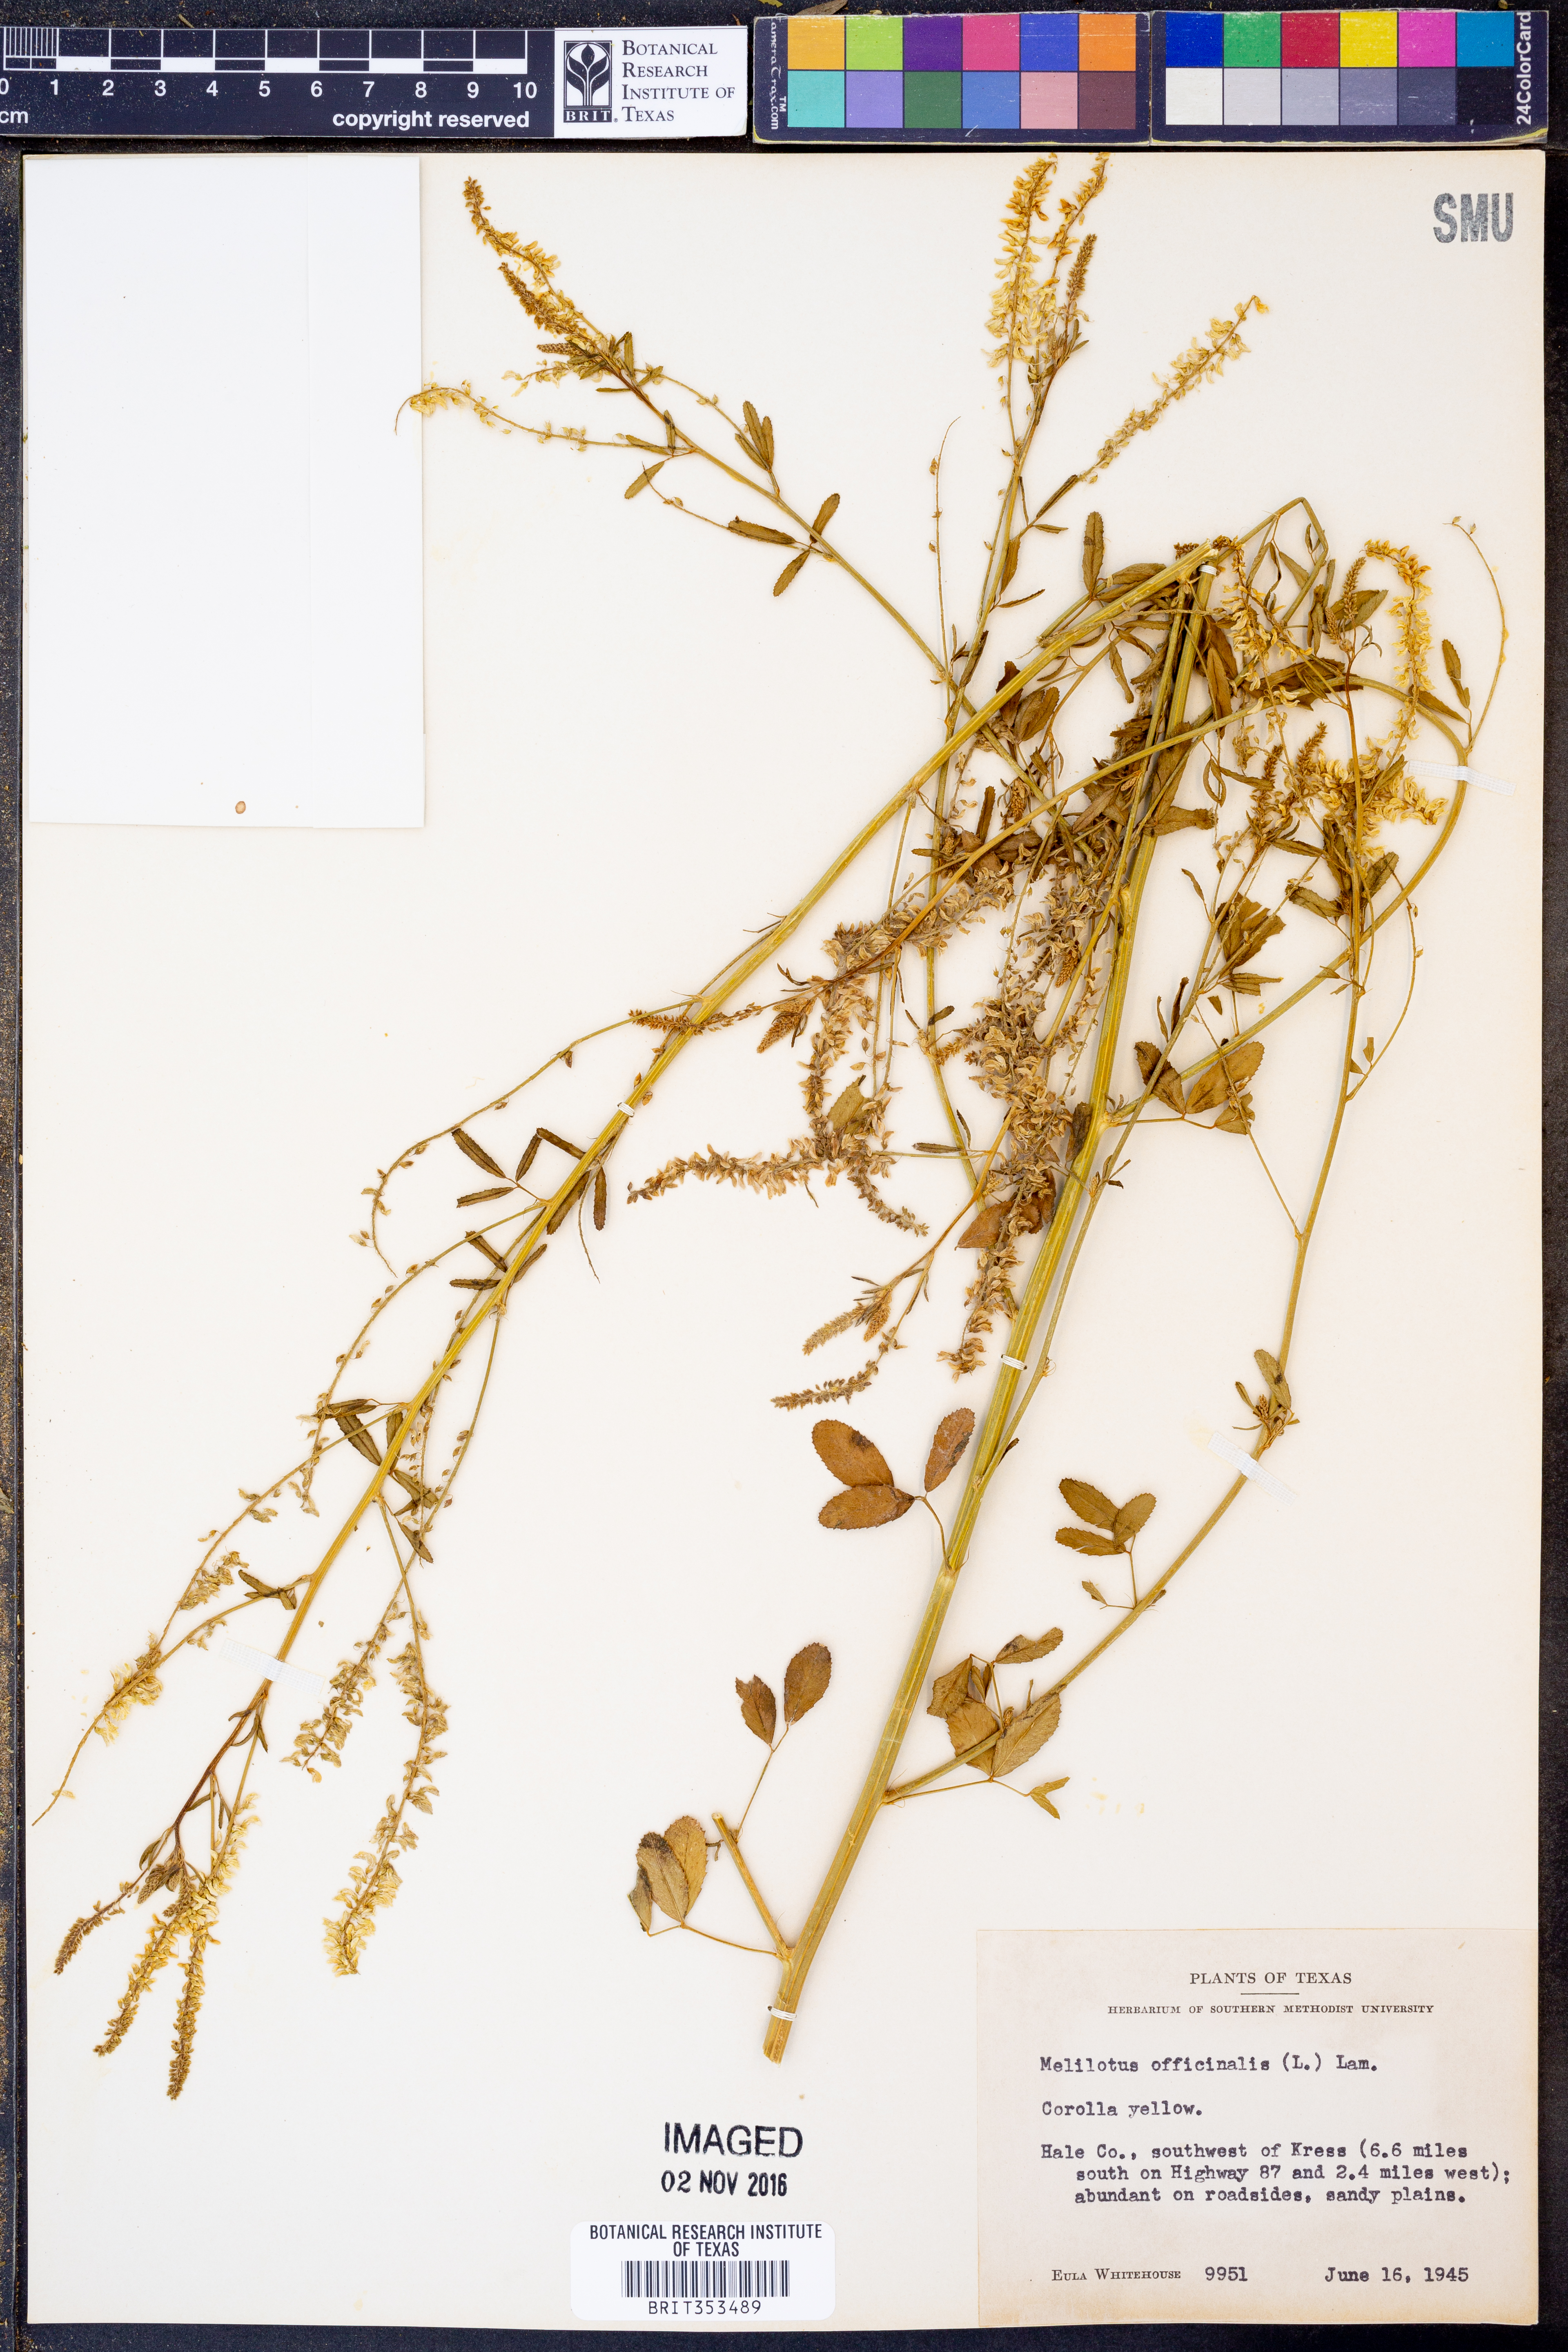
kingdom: Plantae
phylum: Tracheophyta
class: Magnoliopsida
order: Fabales
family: Fabaceae
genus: Melilotus
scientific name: Melilotus officinalis
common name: Sweetclover
